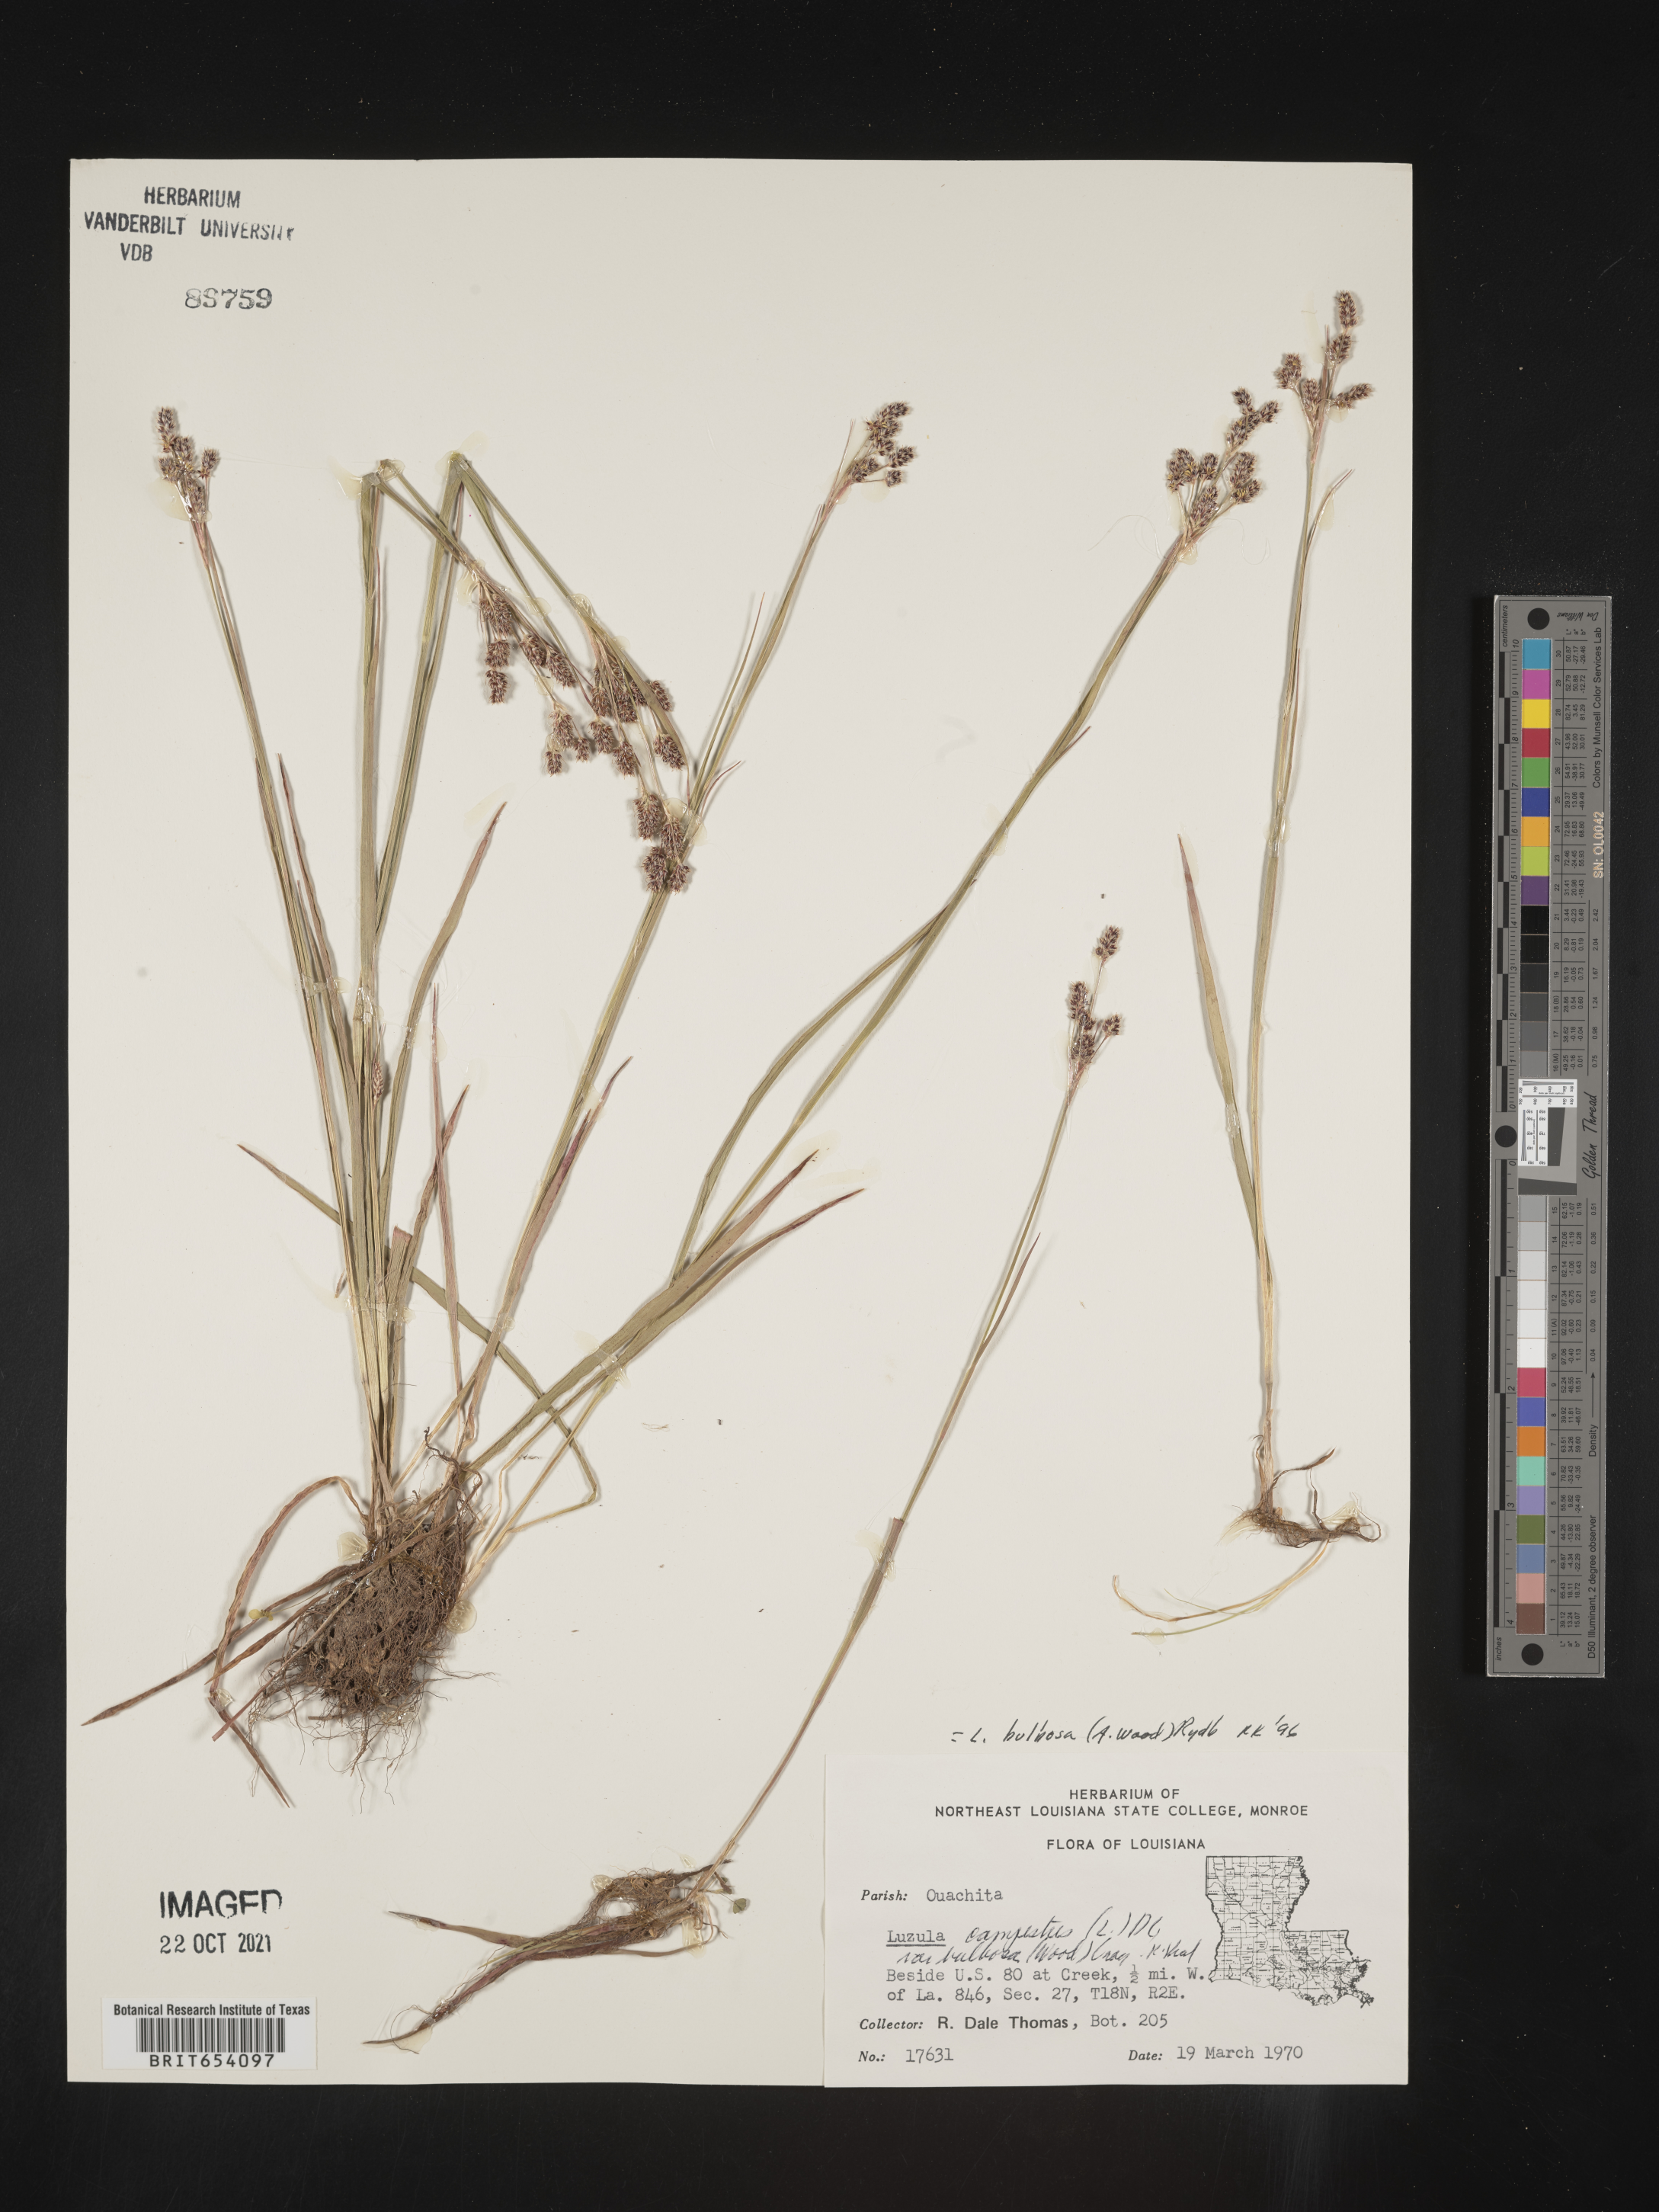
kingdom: Plantae
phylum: Tracheophyta
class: Liliopsida
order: Poales
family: Juncaceae
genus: Luzula
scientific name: Luzula bulbosa
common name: Bulbous woodrush
